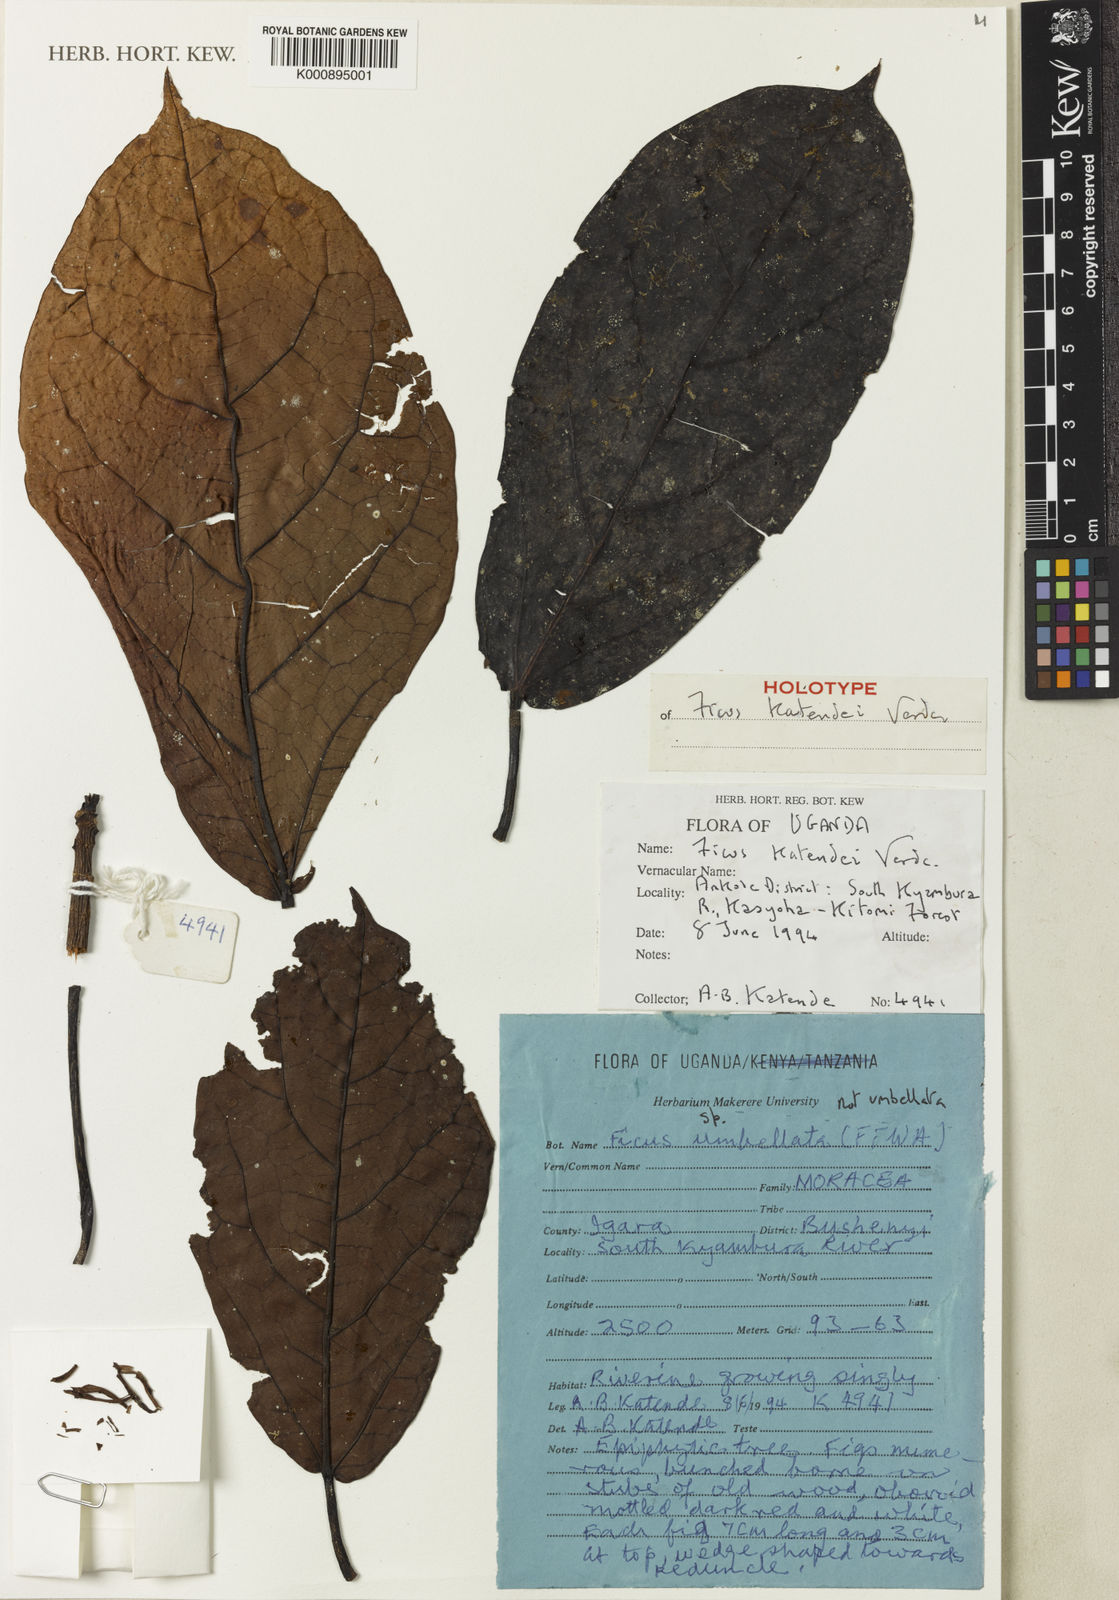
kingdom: Plantae
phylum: Tracheophyta
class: Magnoliopsida
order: Rosales
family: Moraceae
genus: Ficus
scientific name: Ficus katendei
